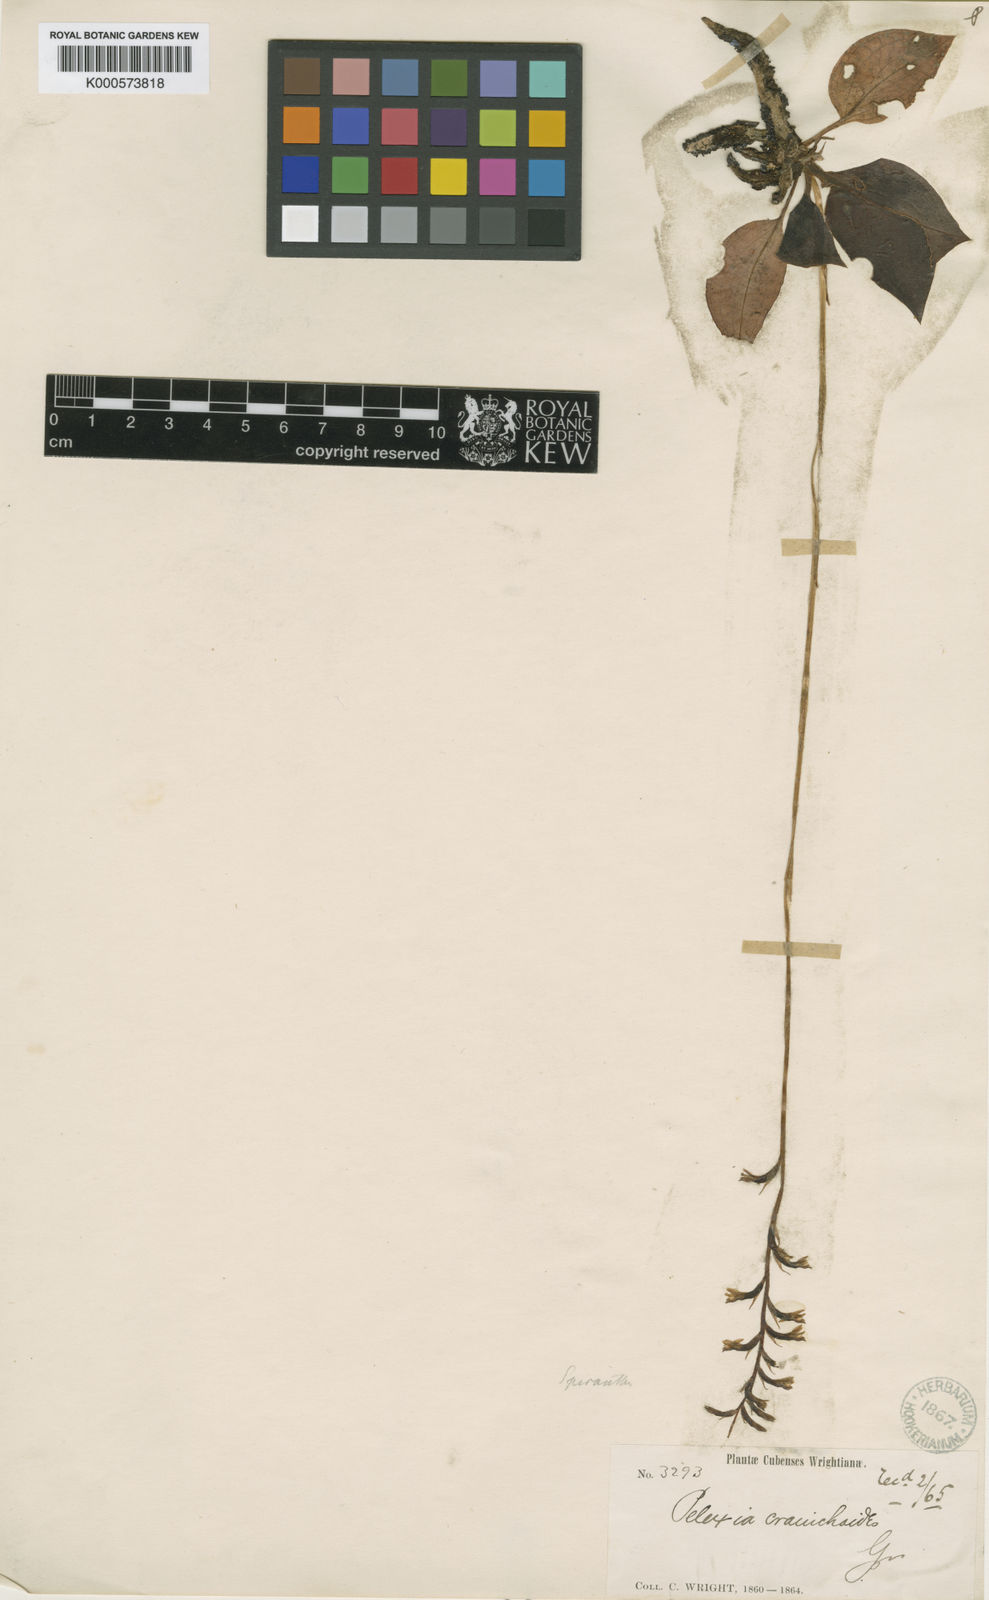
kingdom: Plantae
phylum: Tracheophyta
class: Liliopsida
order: Asparagales
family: Orchidaceae
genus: Cyclopogon
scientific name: Cyclopogon cranichoides
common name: Green ladies' tresses
